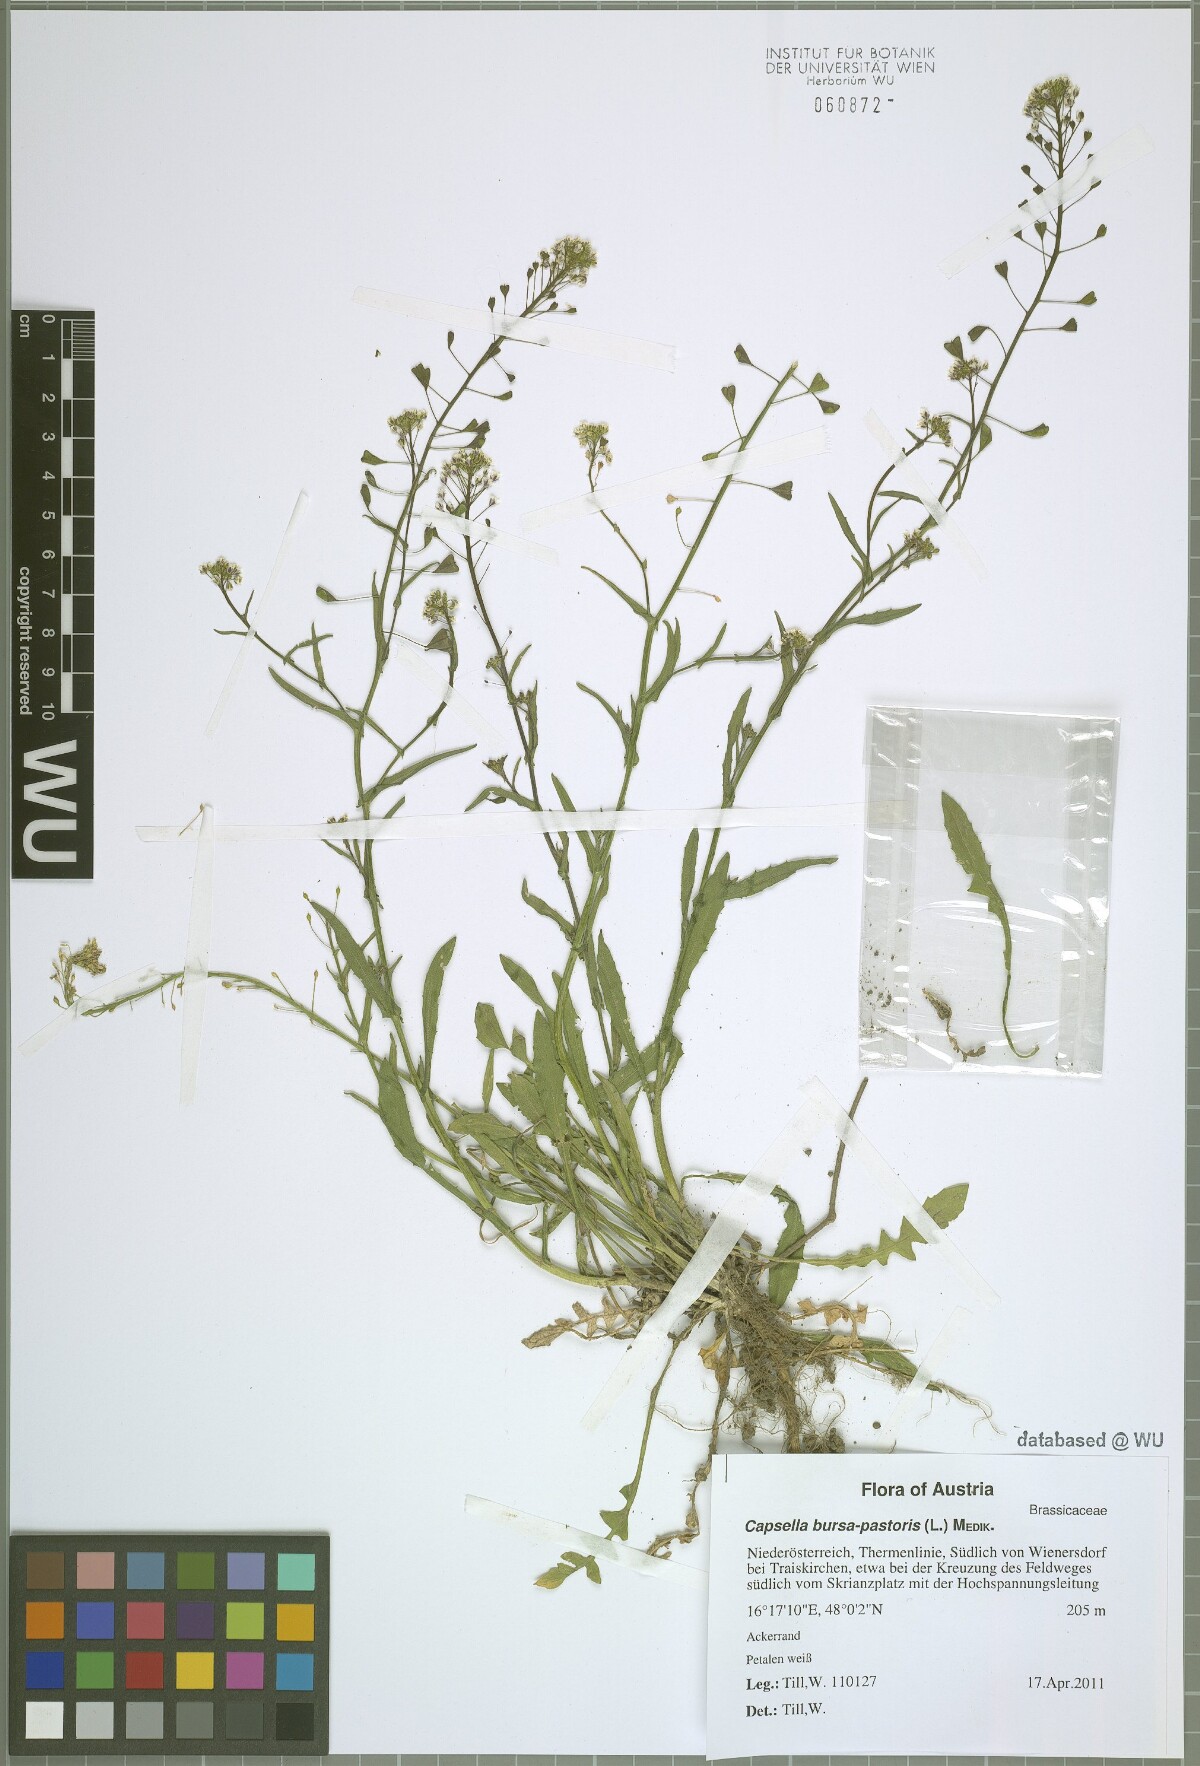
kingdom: Plantae
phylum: Tracheophyta
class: Magnoliopsida
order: Brassicales
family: Brassicaceae
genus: Capsella
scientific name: Capsella bursa-pastoris
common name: Shepherd's purse
